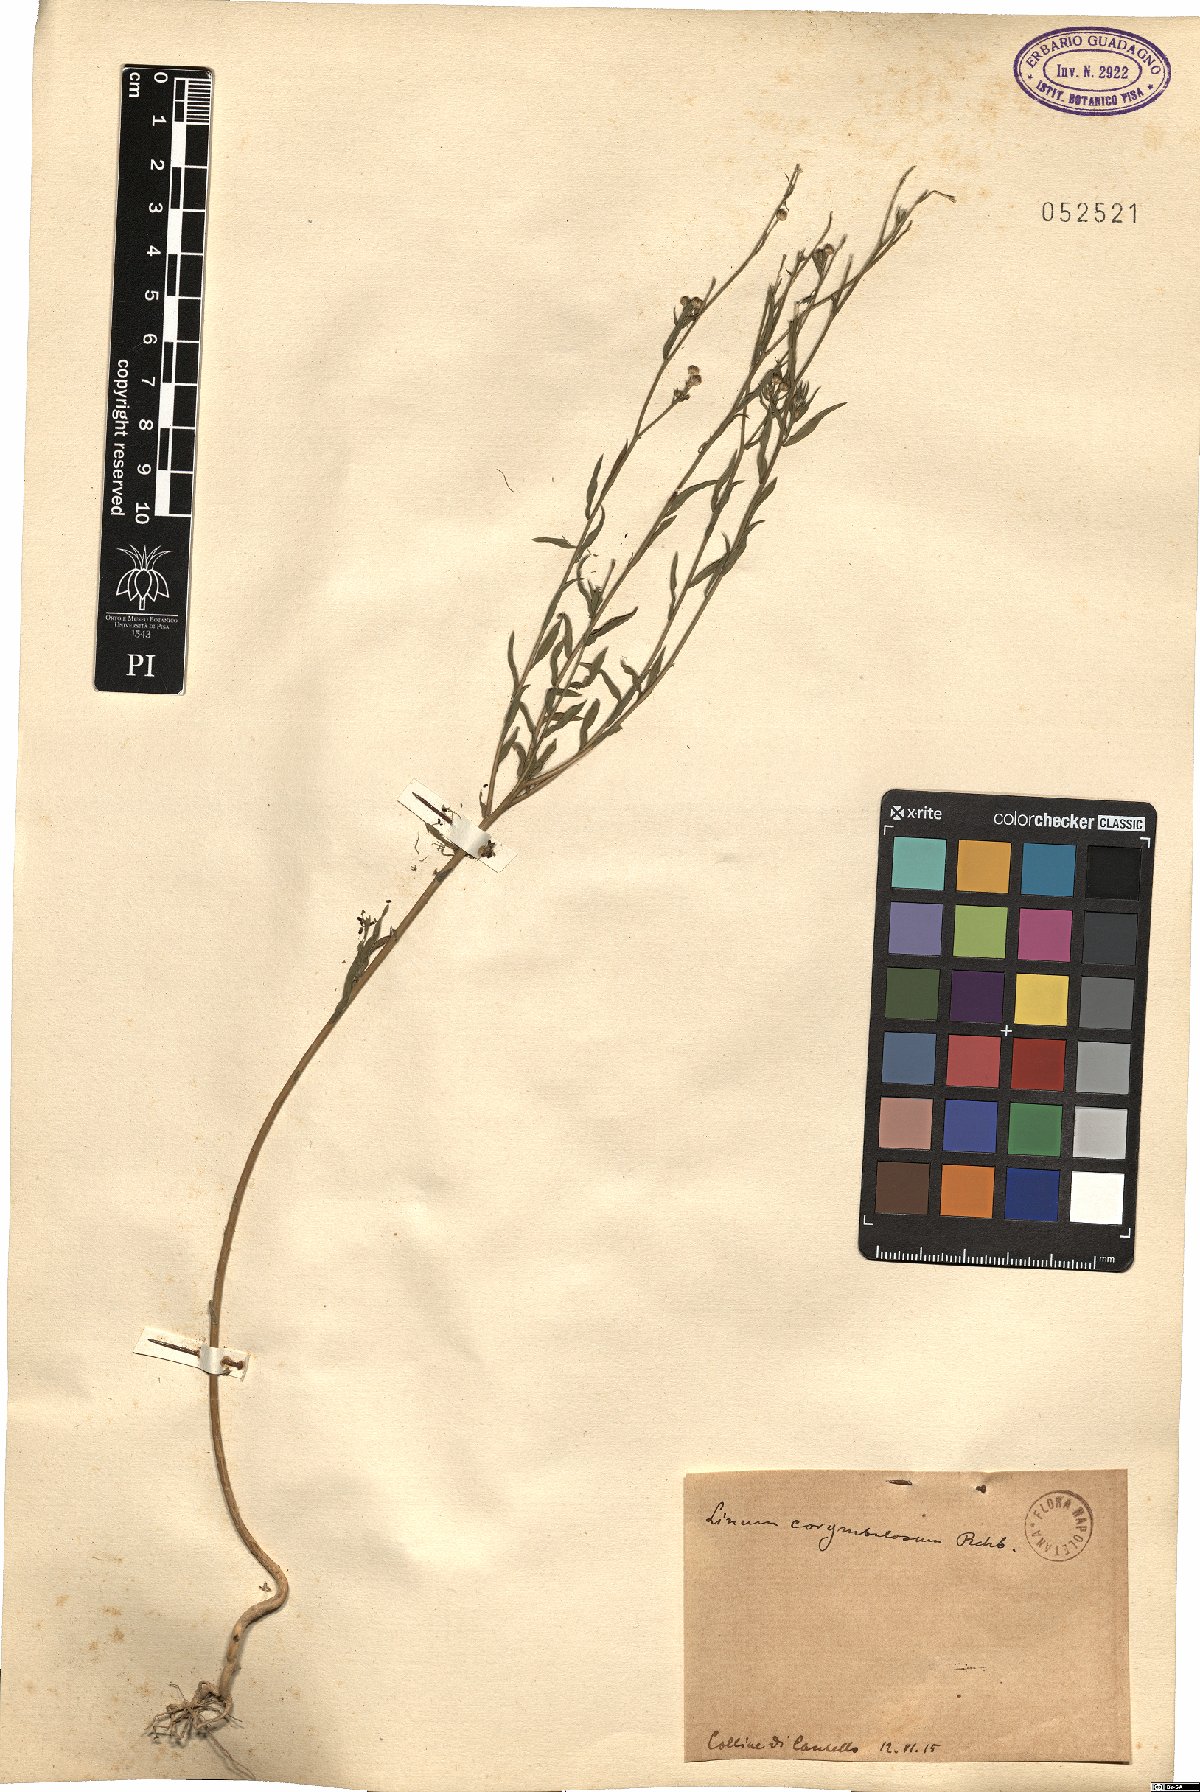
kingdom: Plantae
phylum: Tracheophyta
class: Magnoliopsida
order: Malpighiales
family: Linaceae
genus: Linum
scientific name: Linum corymbulosum
